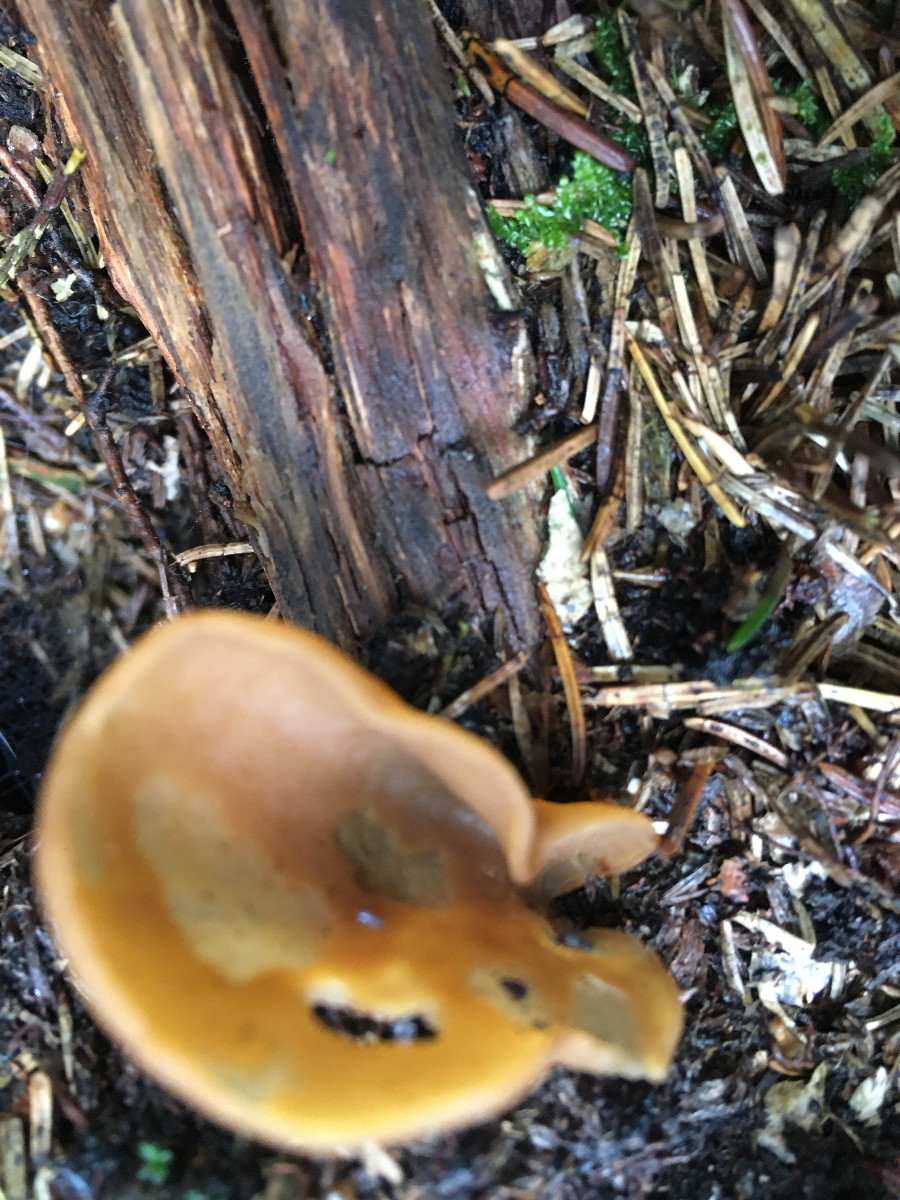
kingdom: Fungi
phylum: Ascomycota
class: Pezizomycetes
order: Pezizales
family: Otideaceae
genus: Otidea
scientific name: Otidea
